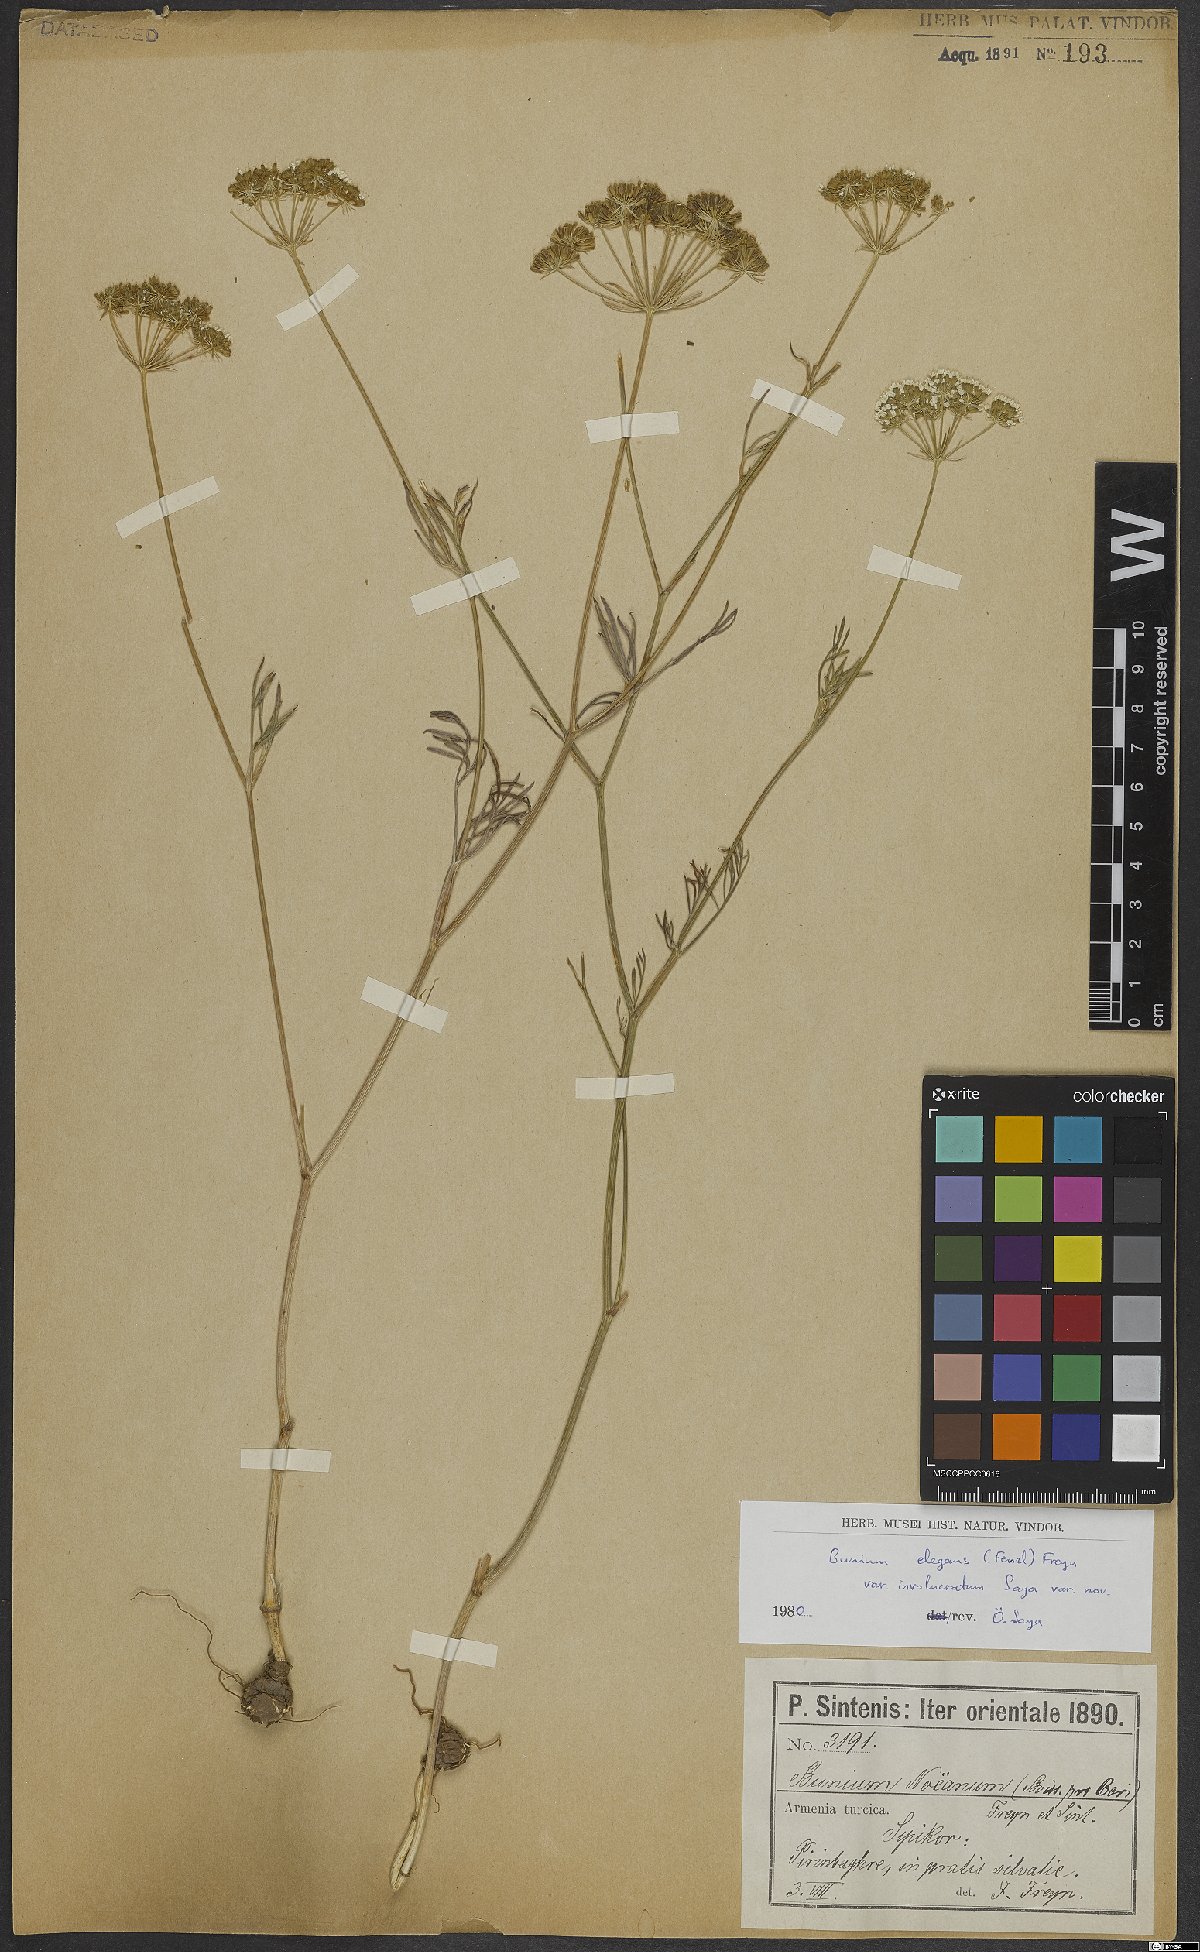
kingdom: Plantae
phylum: Tracheophyta
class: Magnoliopsida
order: Apiales
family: Apiaceae
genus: Bunium
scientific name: Bunium elegans
